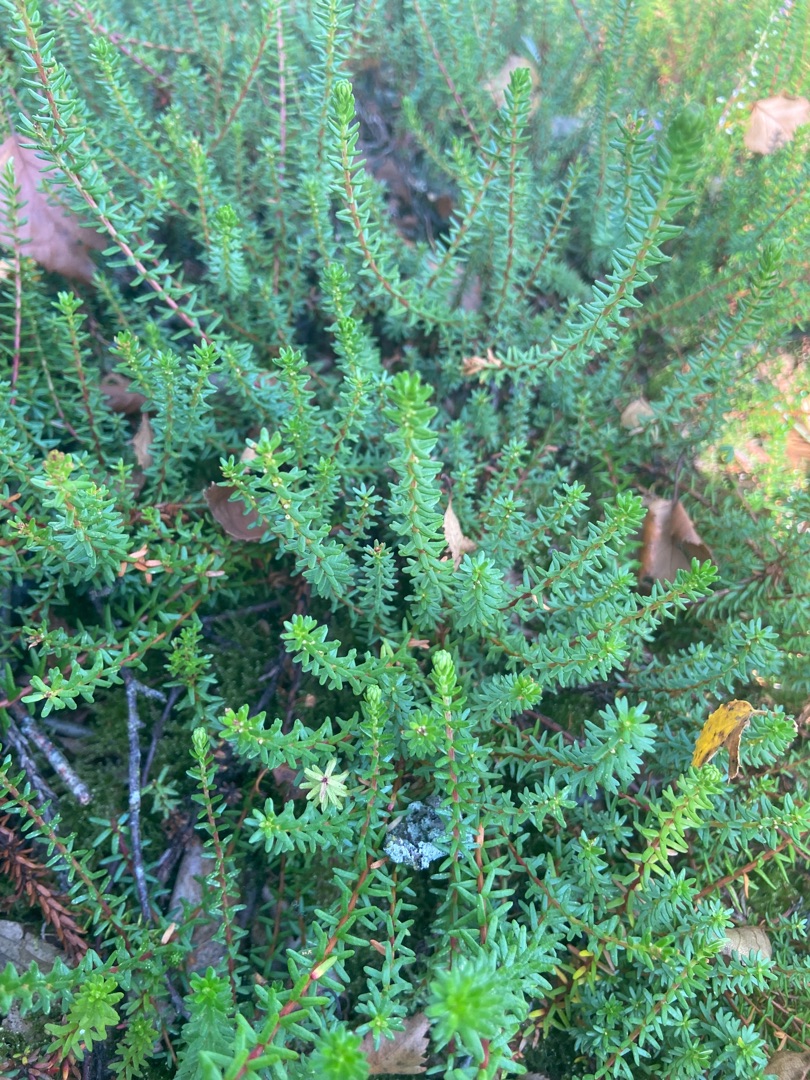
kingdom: Plantae
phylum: Tracheophyta
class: Magnoliopsida
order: Ericales
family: Ericaceae
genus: Empetrum
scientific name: Empetrum nigrum
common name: Revling
